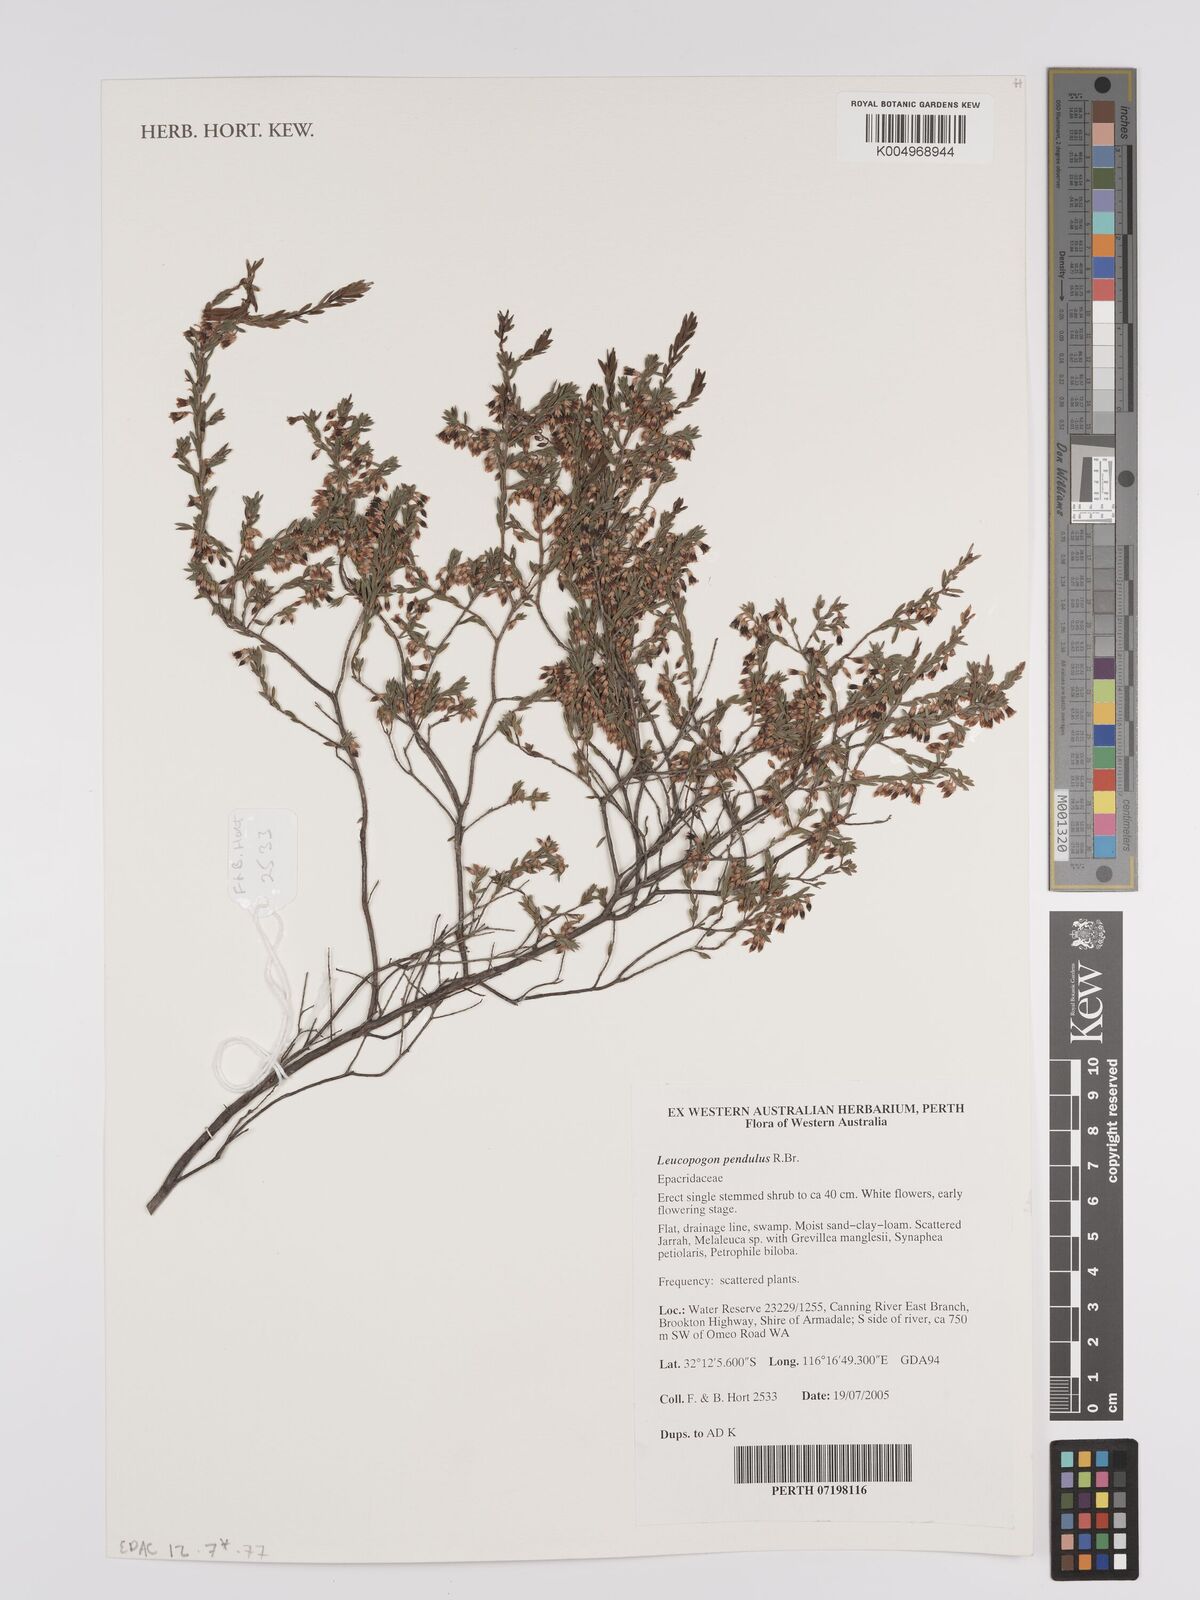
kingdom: Plantae
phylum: Tracheophyta
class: Magnoliopsida
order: Ericales
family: Ericaceae
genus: Styphelia
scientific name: Styphelia pendula
